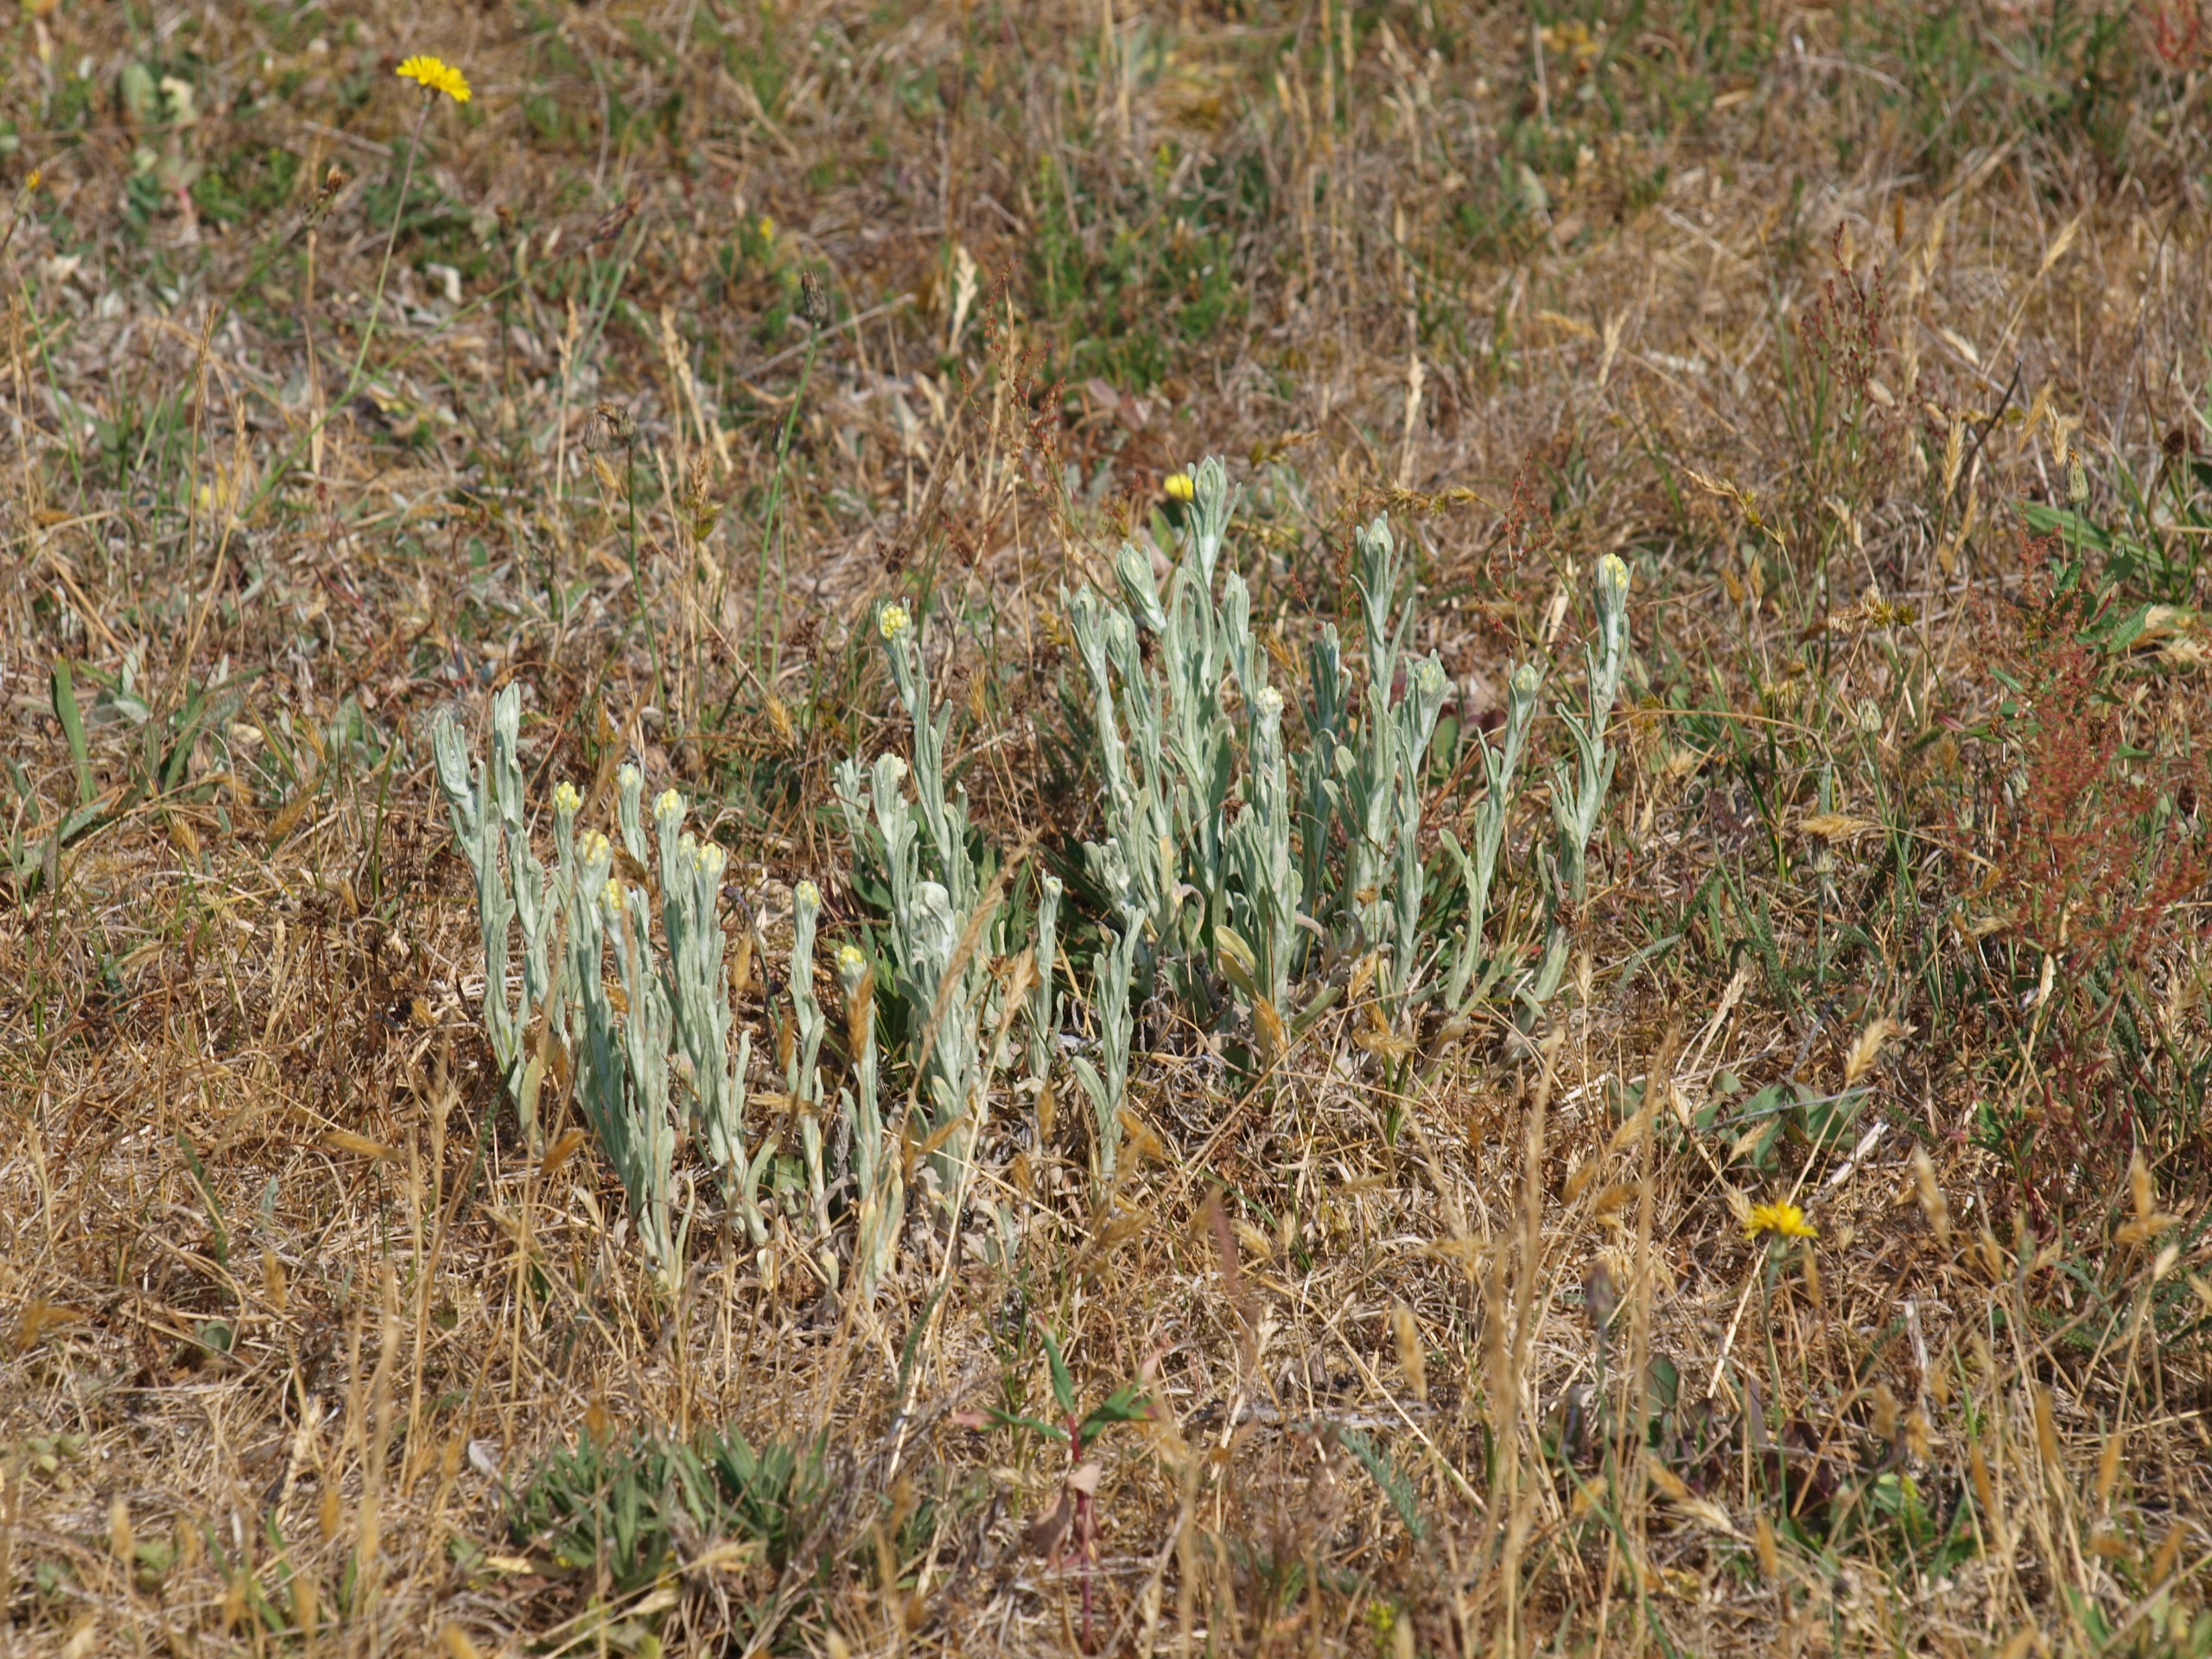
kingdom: Plantae
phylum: Tracheophyta
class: Magnoliopsida
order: Asterales
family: Asteraceae
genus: Helichrysum
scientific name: Helichrysum arenarium
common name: Gul evighedsblomst
